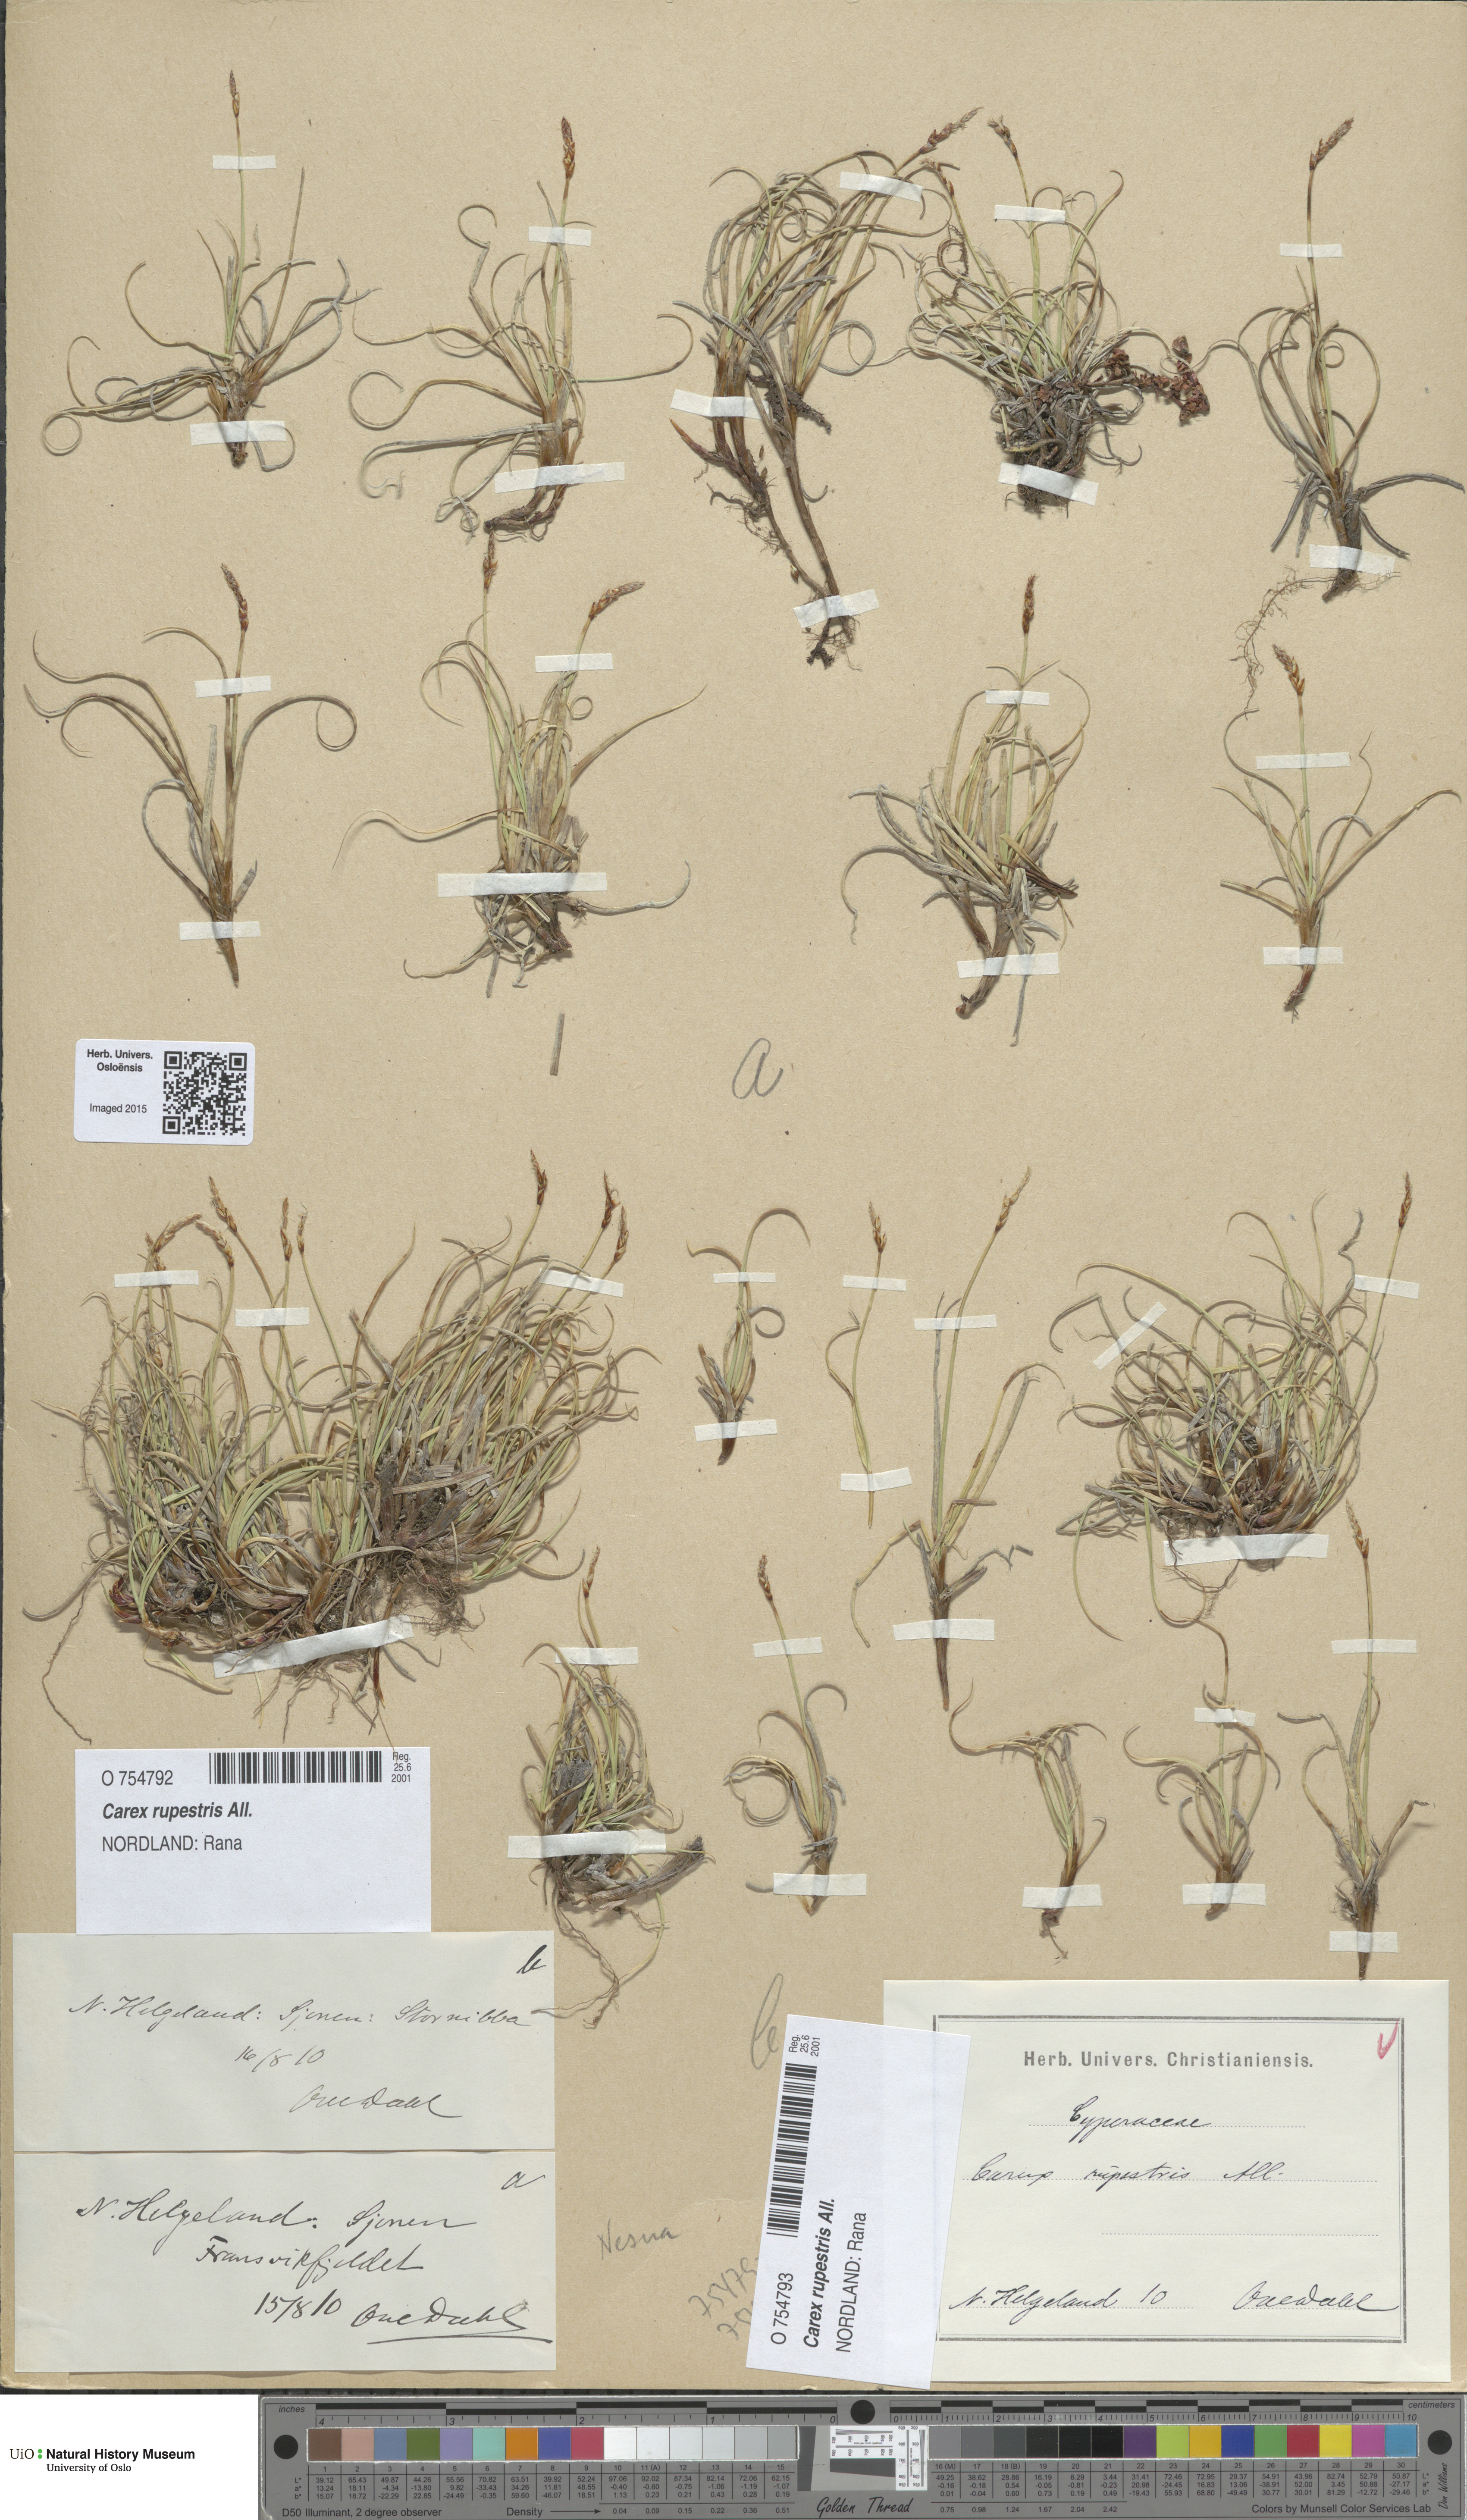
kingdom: Plantae
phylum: Tracheophyta
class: Liliopsida
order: Poales
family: Cyperaceae
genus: Carex
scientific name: Carex rupestris
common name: Rock sedge
